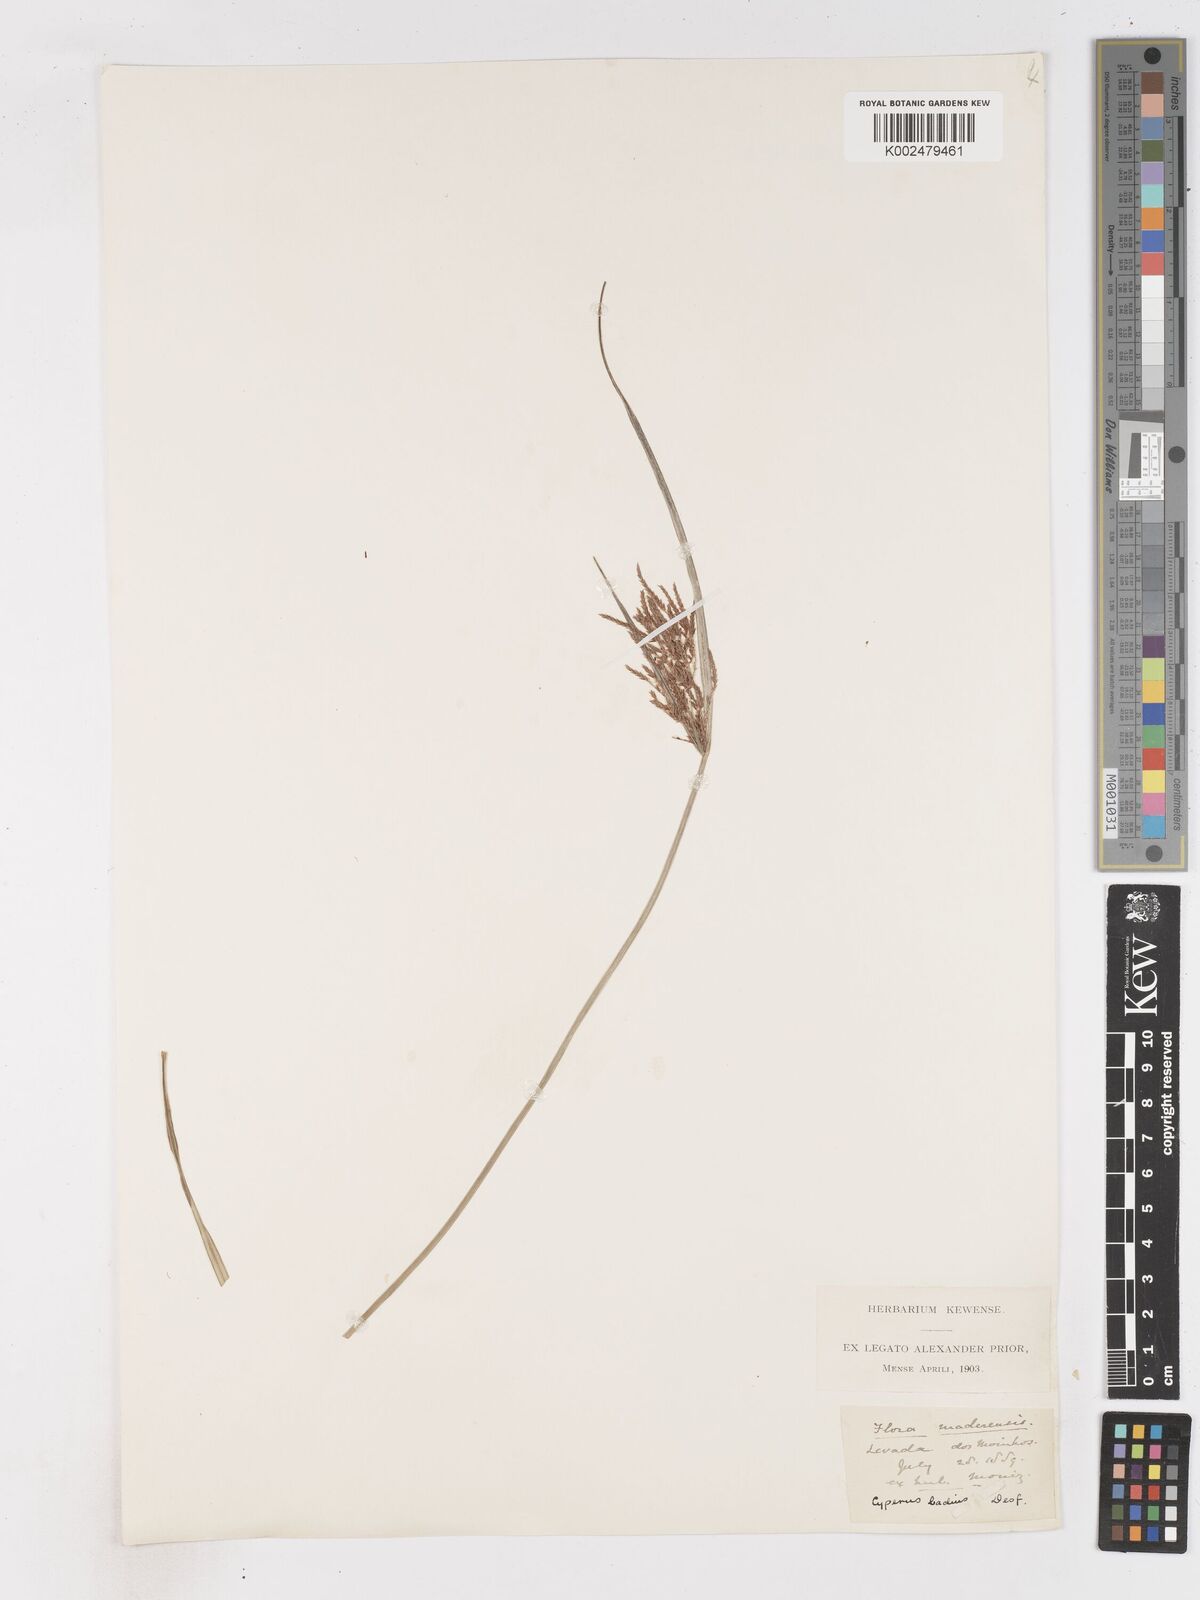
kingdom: Plantae
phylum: Tracheophyta
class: Liliopsida
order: Poales
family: Cyperaceae
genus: Cyperus
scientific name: Cyperus longus
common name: Galingale
